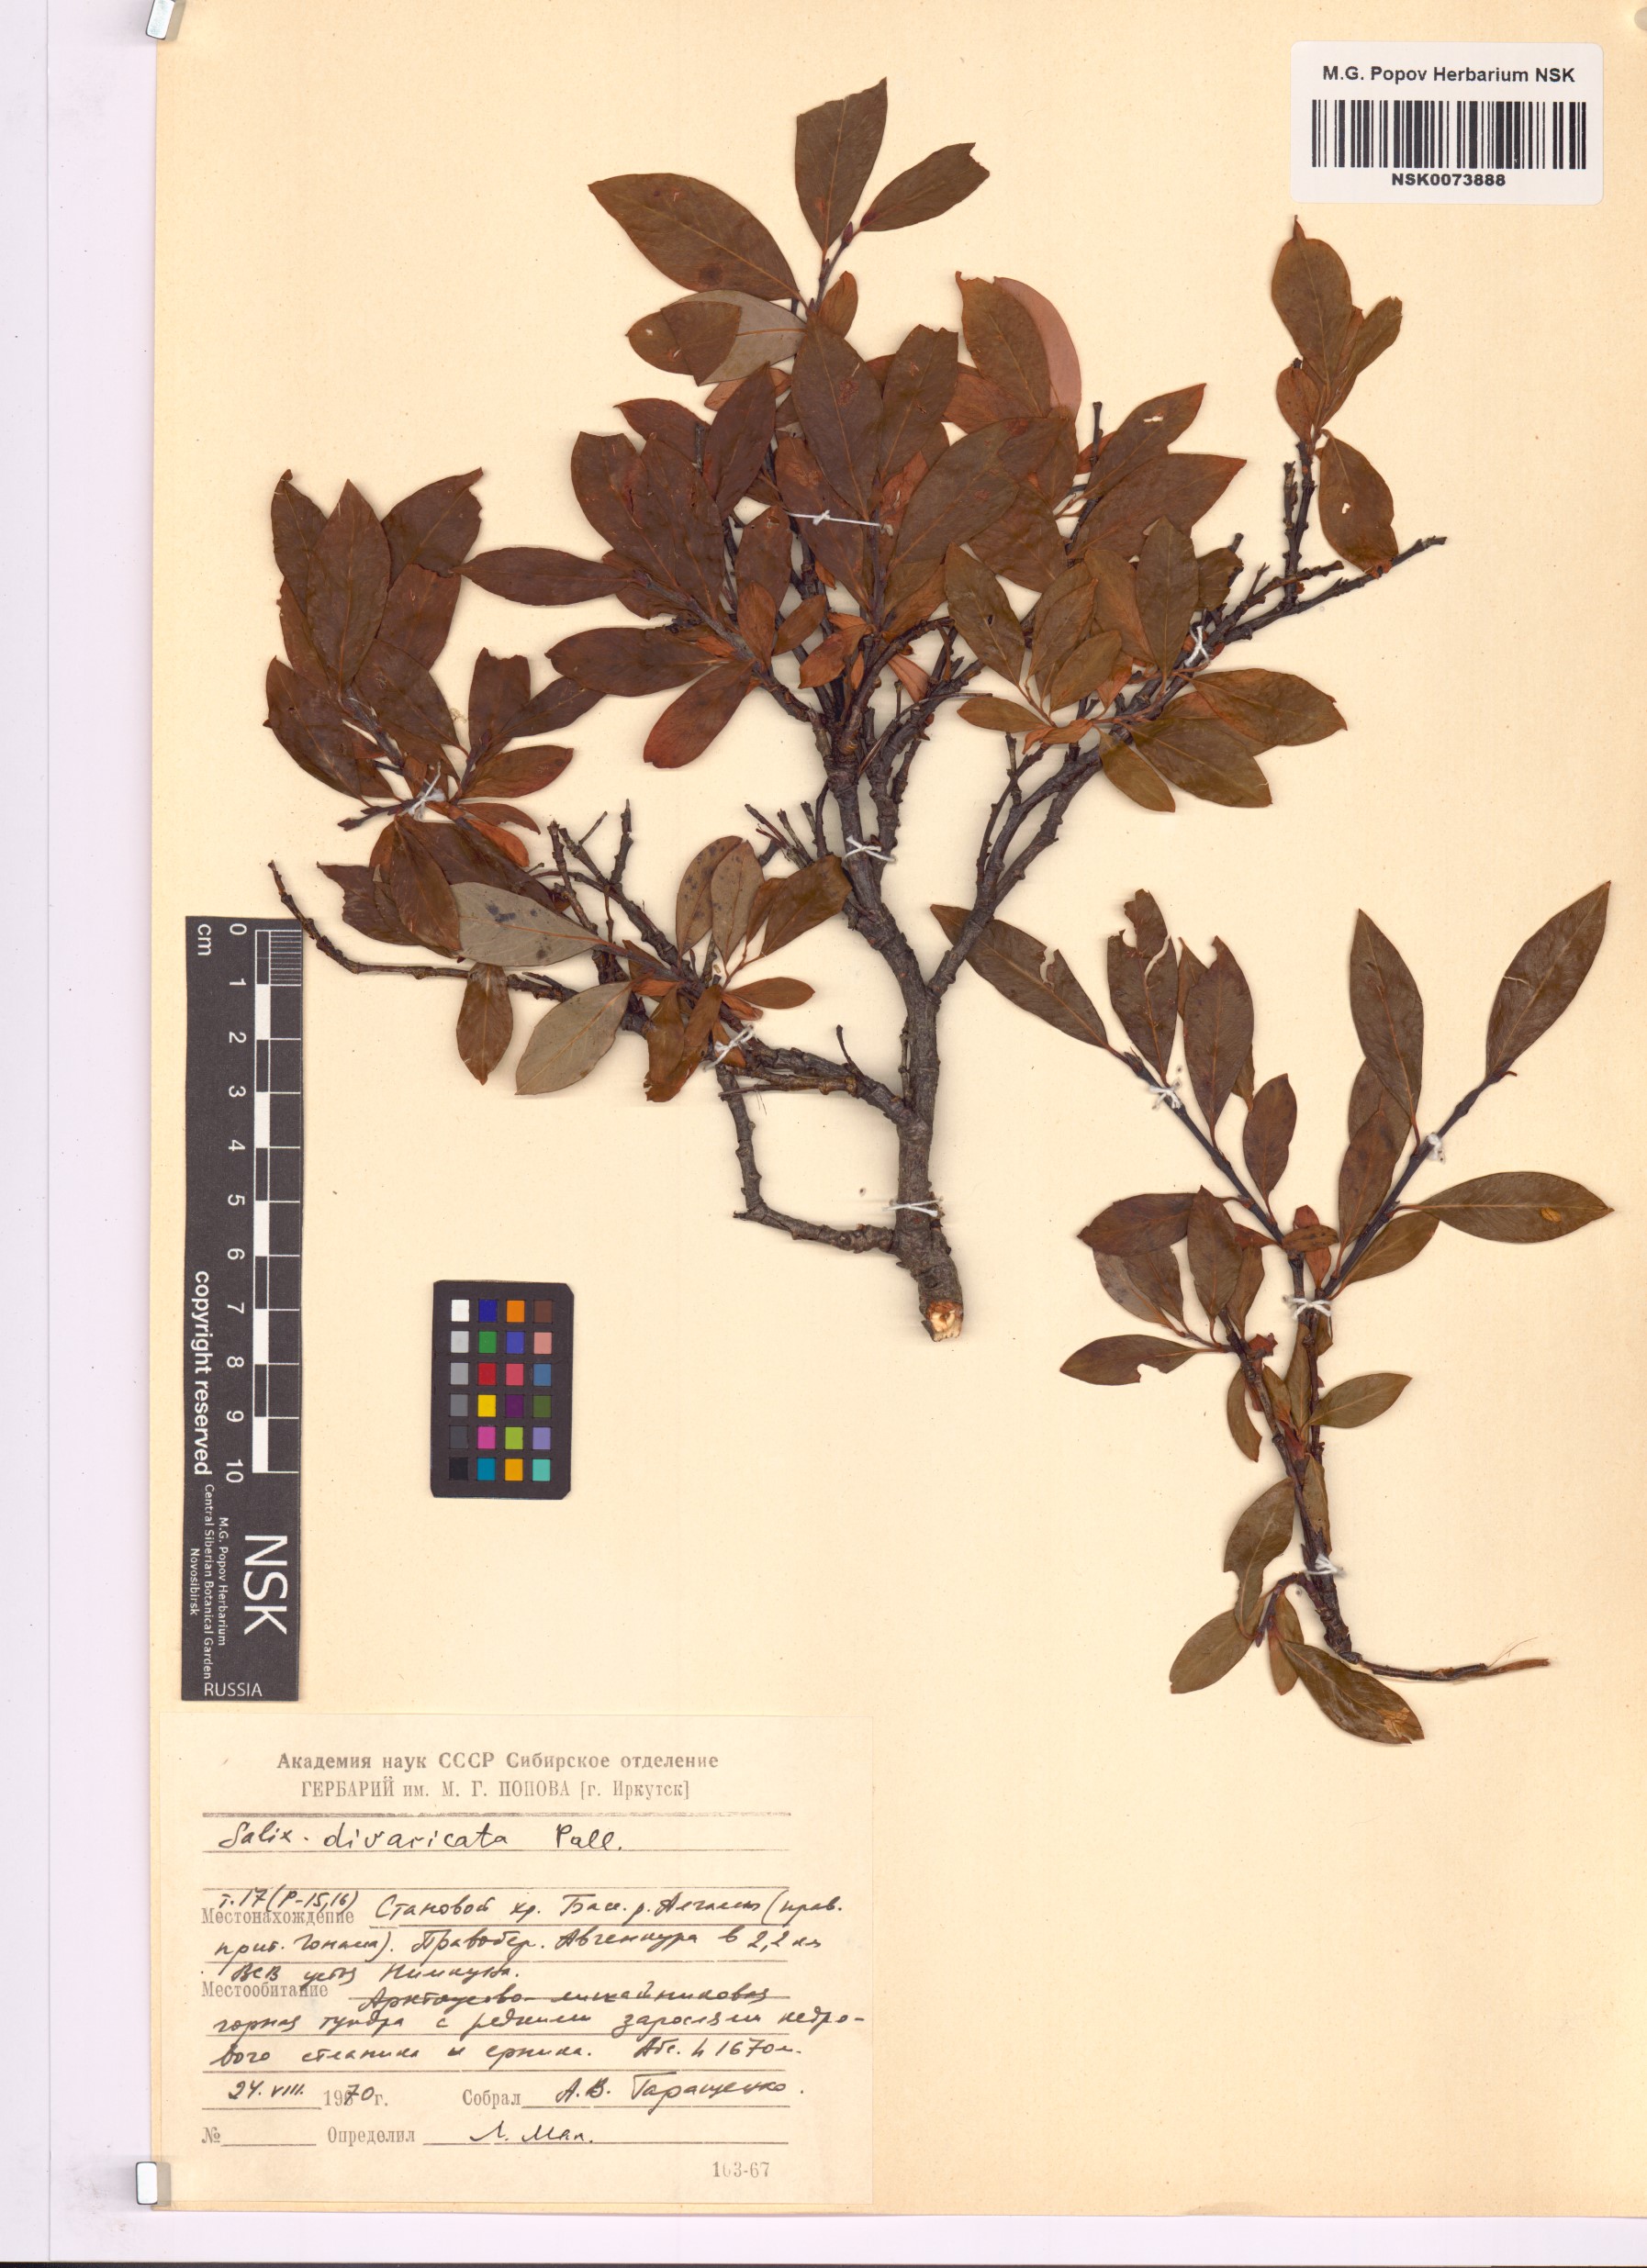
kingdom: Plantae
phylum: Tracheophyta
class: Magnoliopsida
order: Malpighiales
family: Salicaceae
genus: Salix
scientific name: Salix divaricata
